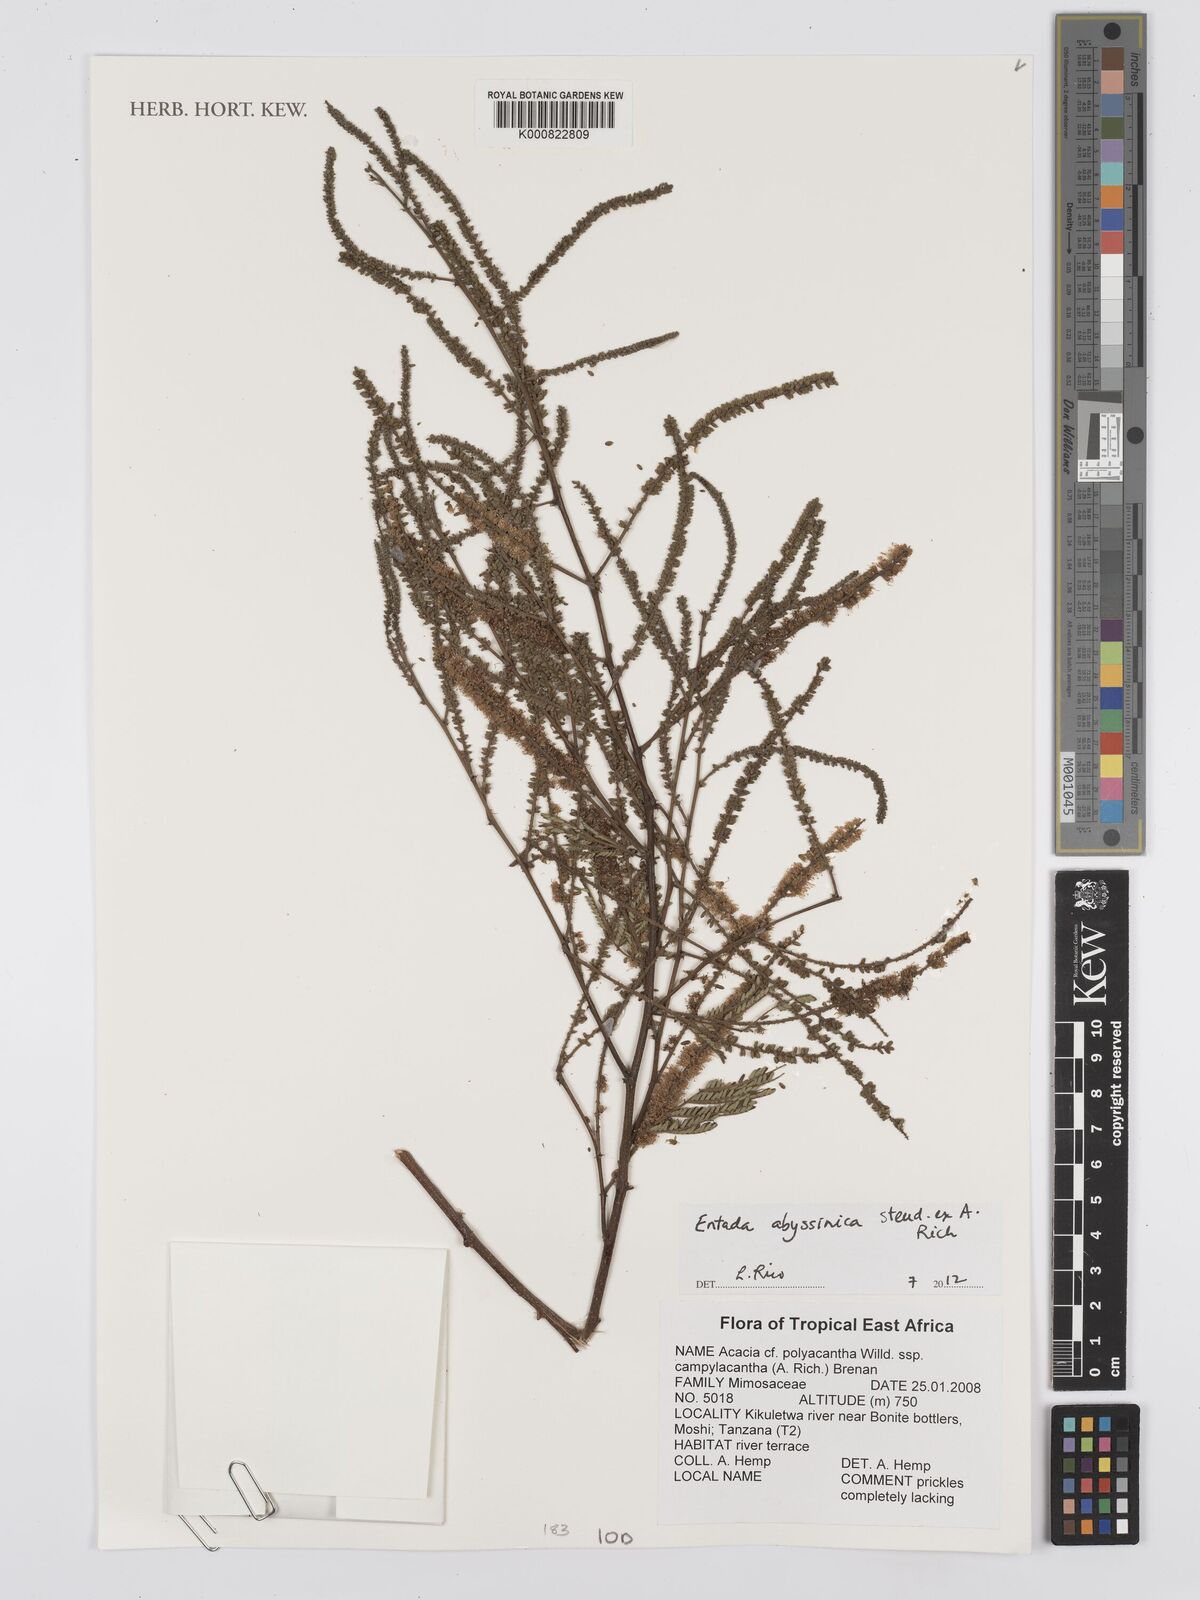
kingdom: Plantae
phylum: Tracheophyta
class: Magnoliopsida
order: Fabales
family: Fabaceae
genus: Entada
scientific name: Entada
